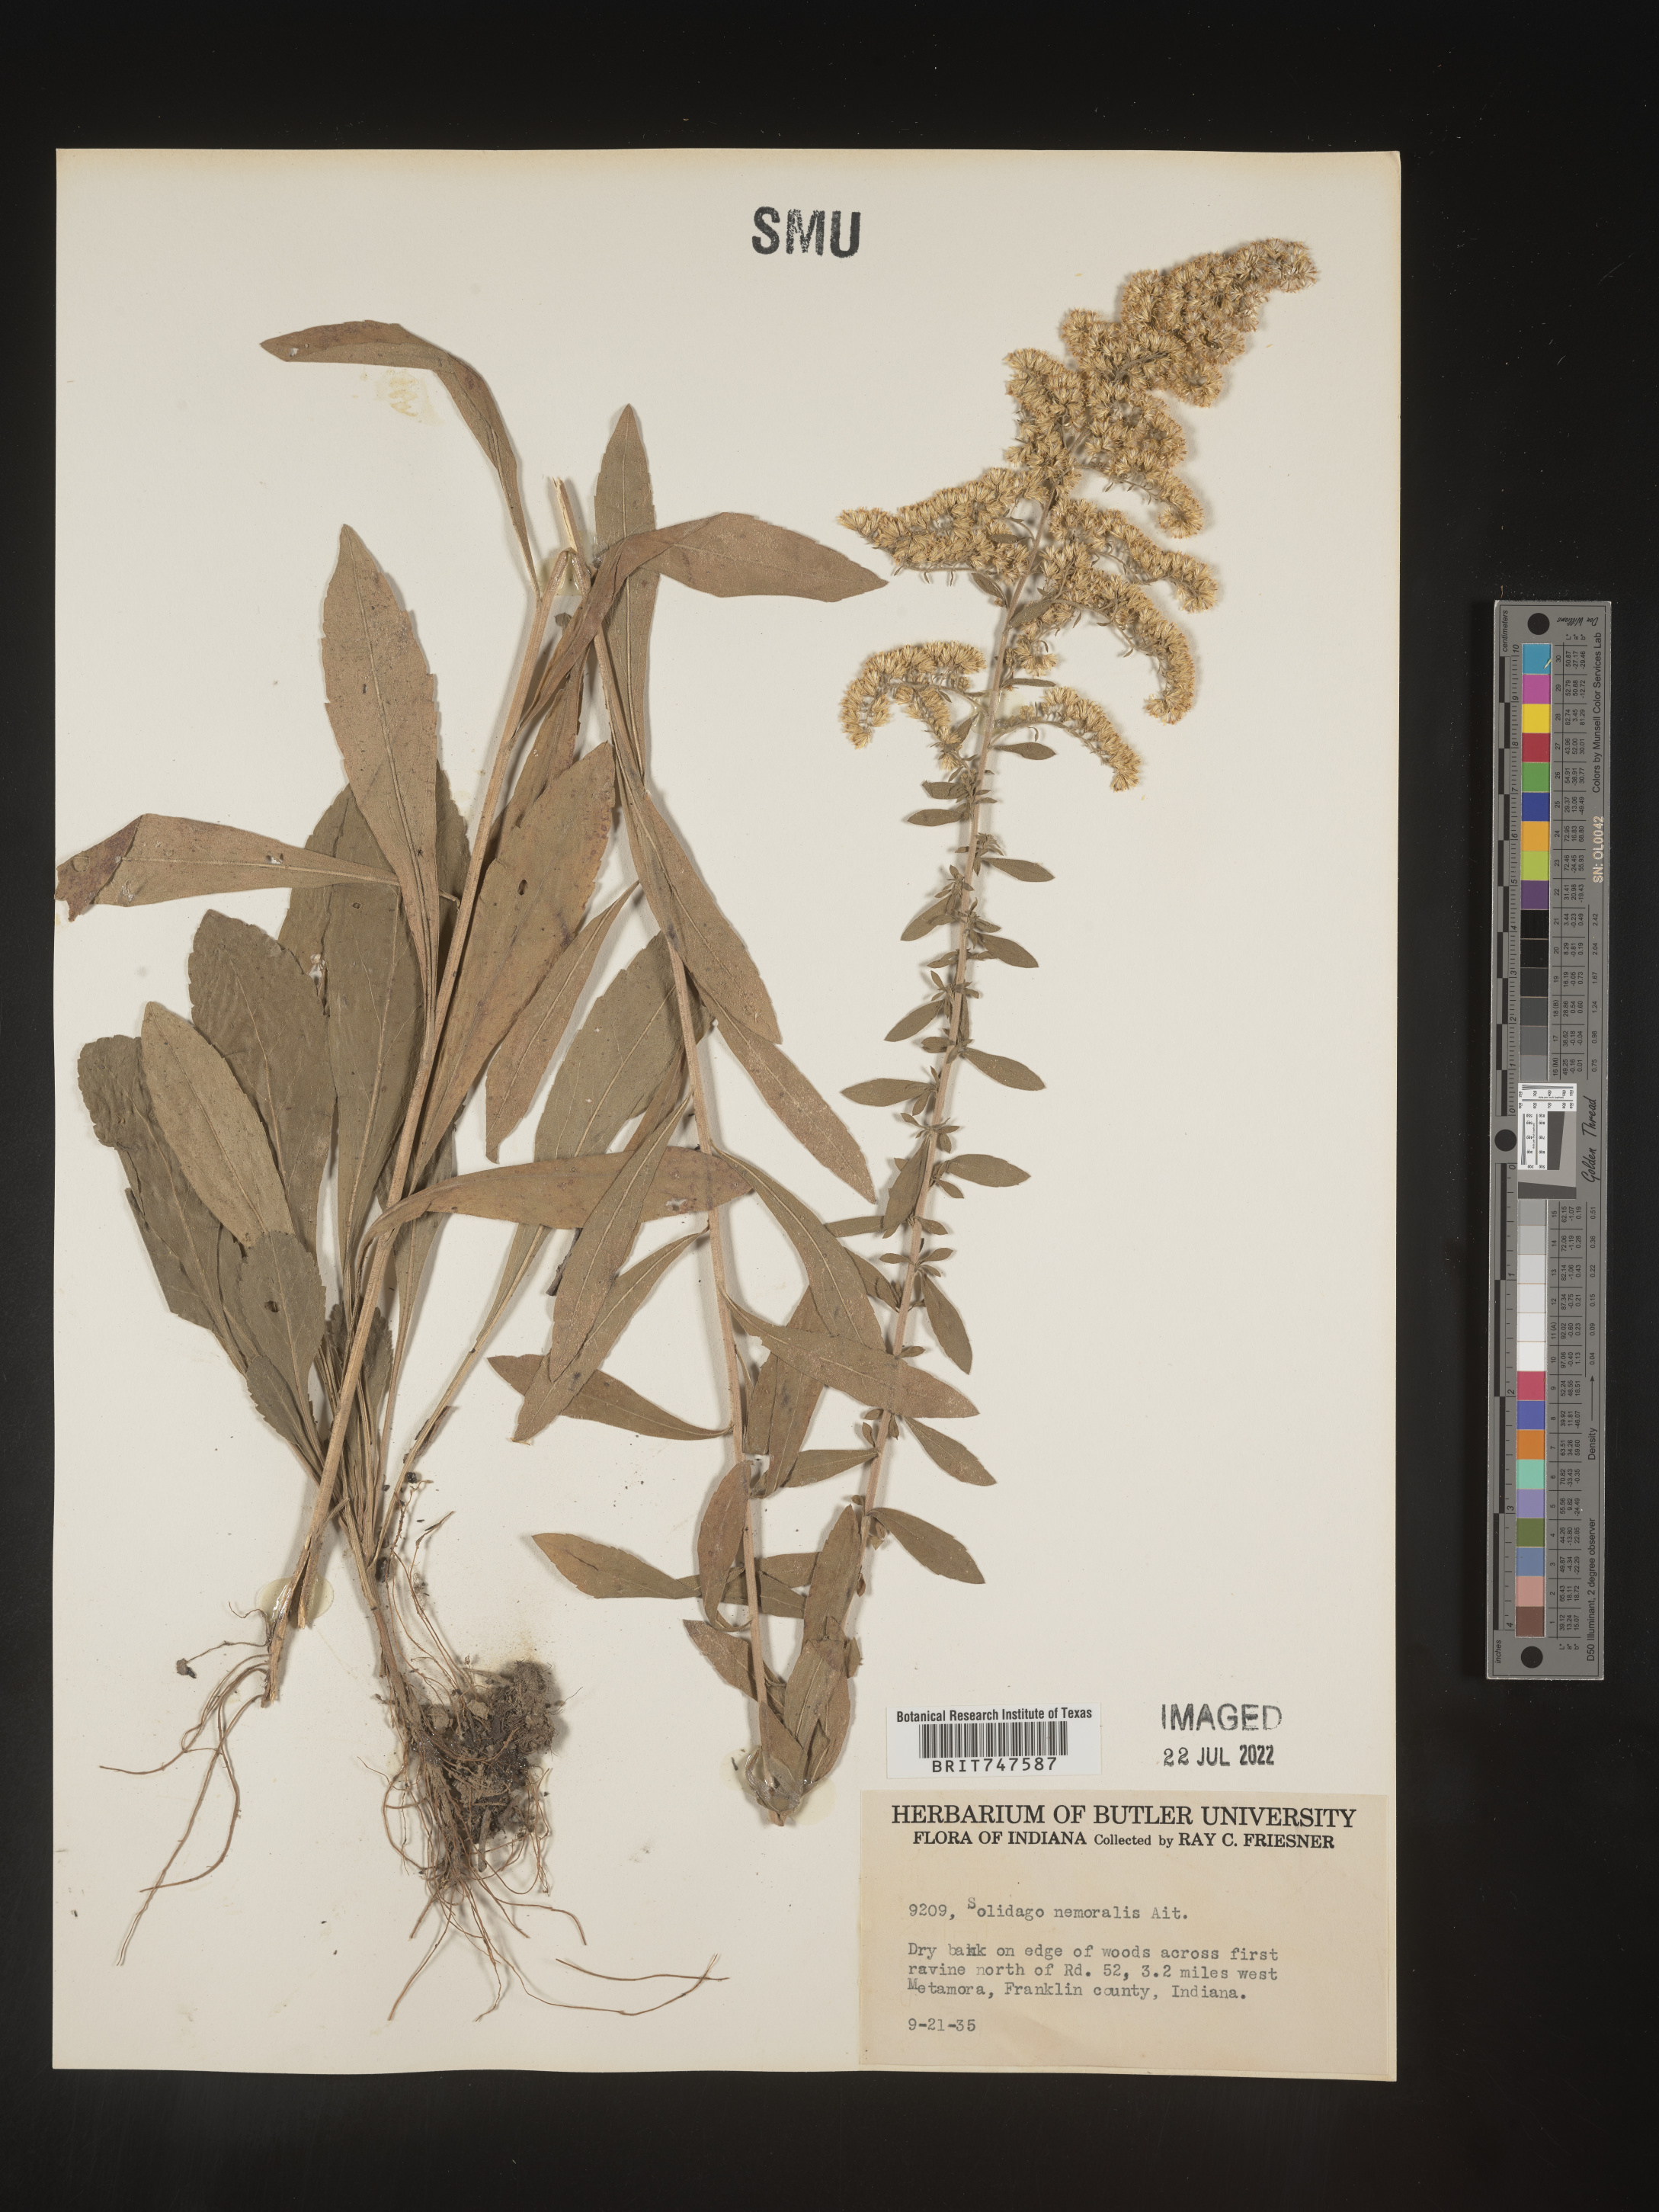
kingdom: Plantae
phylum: Tracheophyta
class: Magnoliopsida
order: Asterales
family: Asteraceae
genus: Solidago
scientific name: Solidago nemoralis
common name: Grey goldenrod
